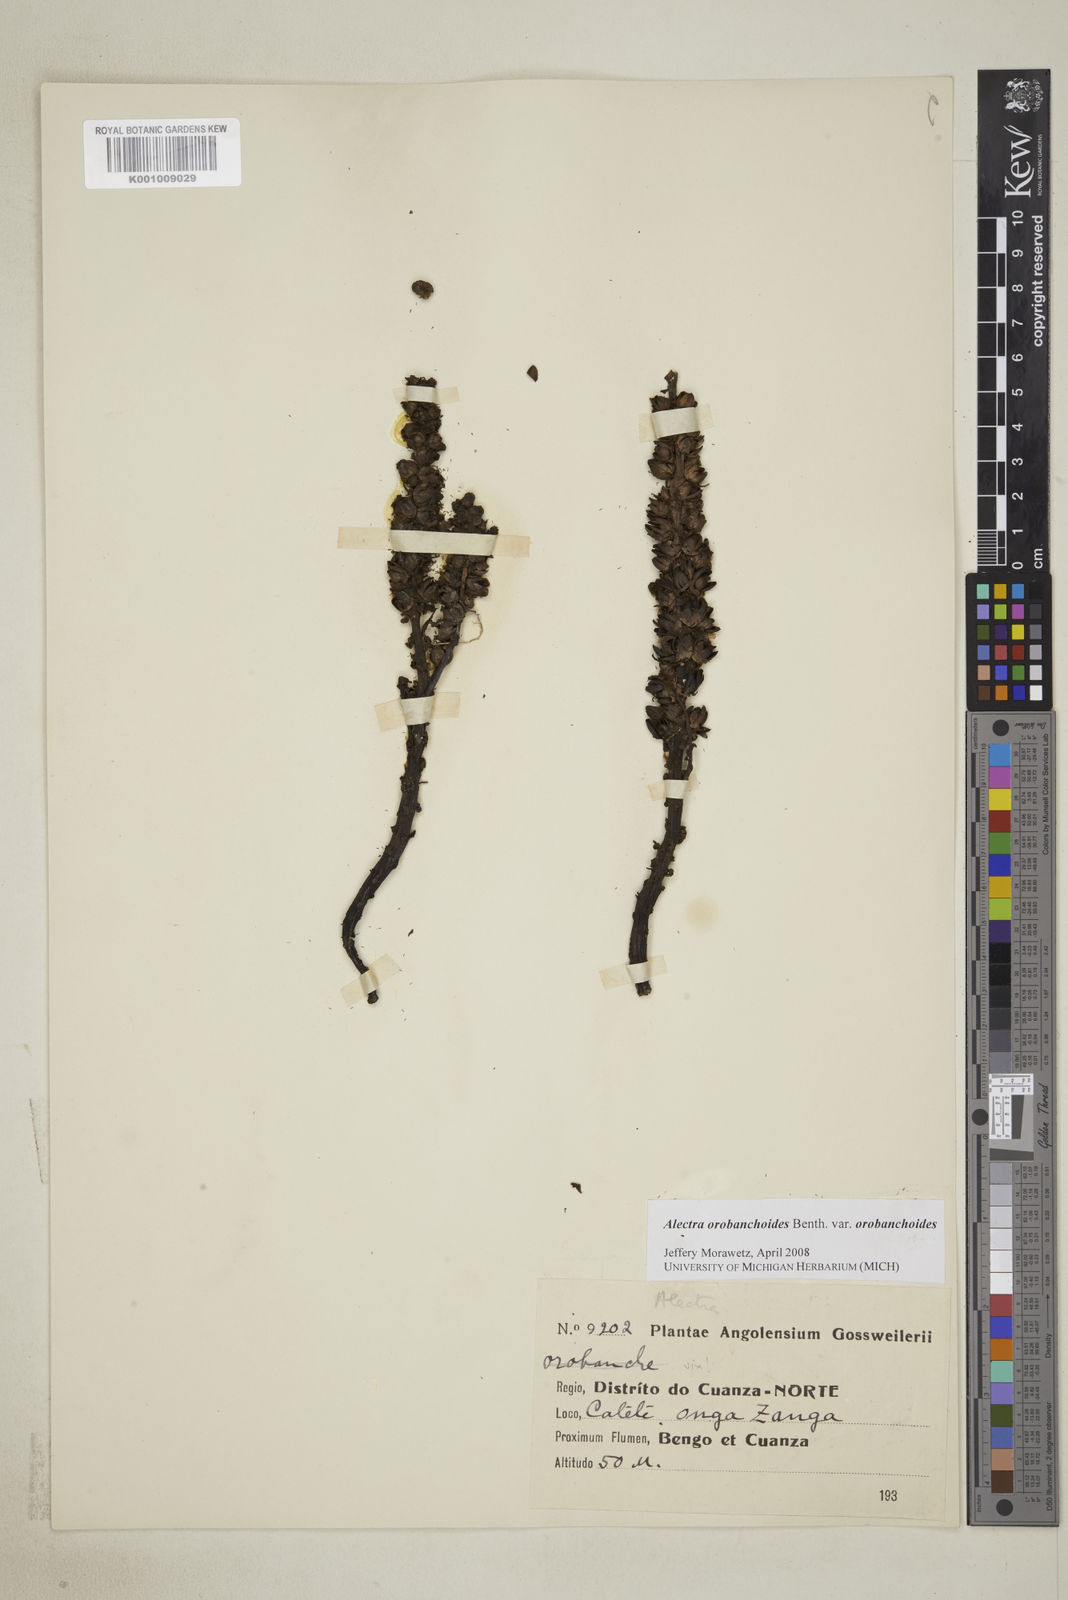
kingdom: Plantae
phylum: Tracheophyta
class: Magnoliopsida
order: Lamiales
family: Orobanchaceae
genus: Alectra
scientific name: Alectra orobanchoides
